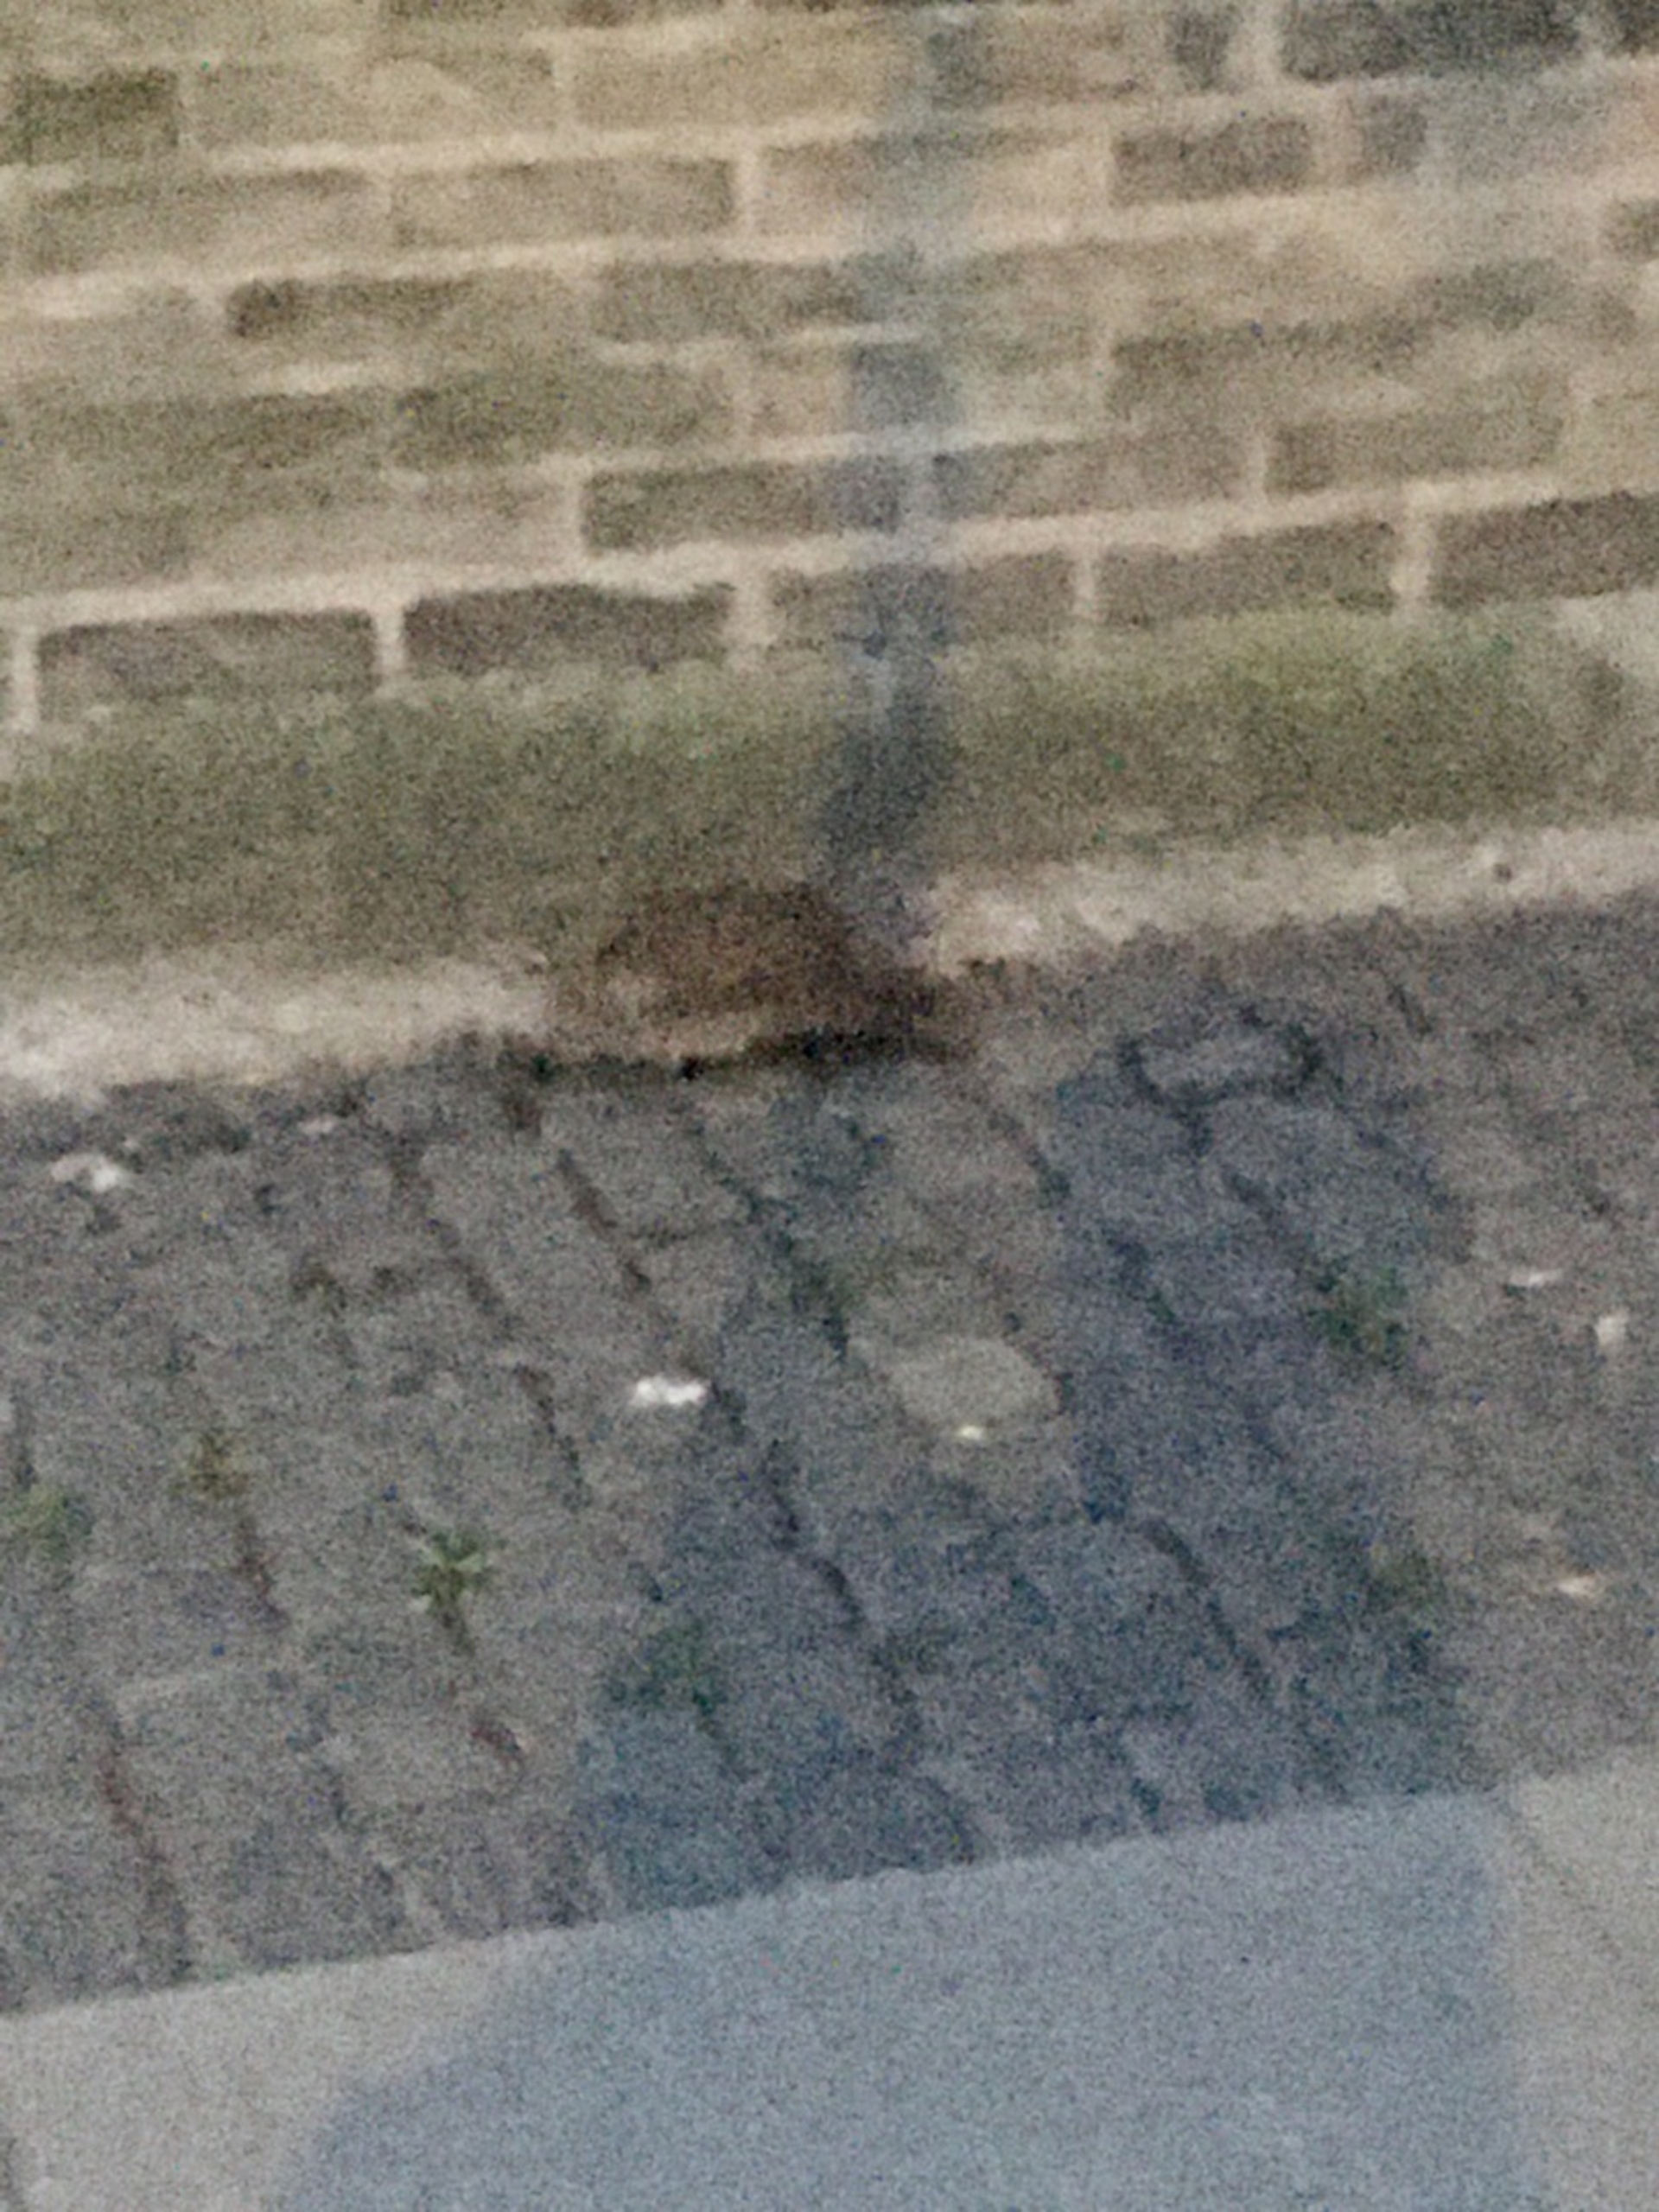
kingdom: Animalia
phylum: Chordata
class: Mammalia
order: Erinaceomorpha
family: Erinaceidae
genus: Erinaceus
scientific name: Erinaceus europaeus
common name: Pindsvin
